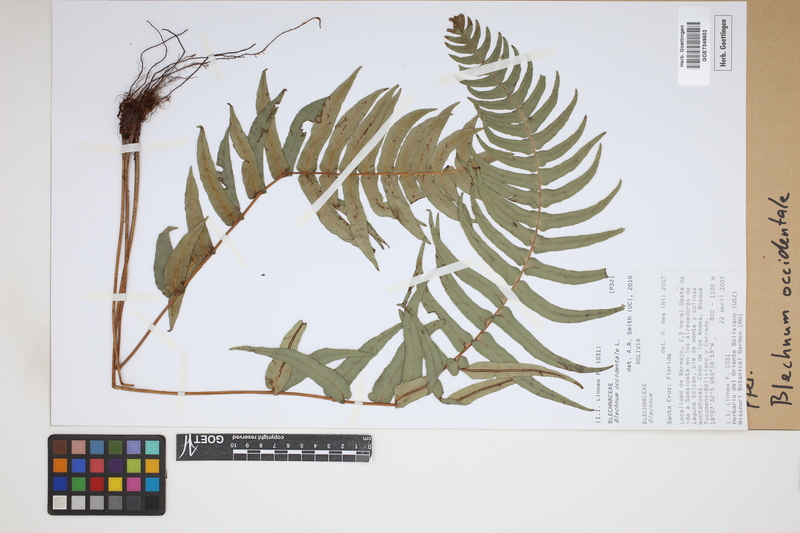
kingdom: Plantae
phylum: Tracheophyta
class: Polypodiopsida
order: Polypodiales
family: Blechnaceae
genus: Blechnum
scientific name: Blechnum occidentale
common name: Hammock fern
